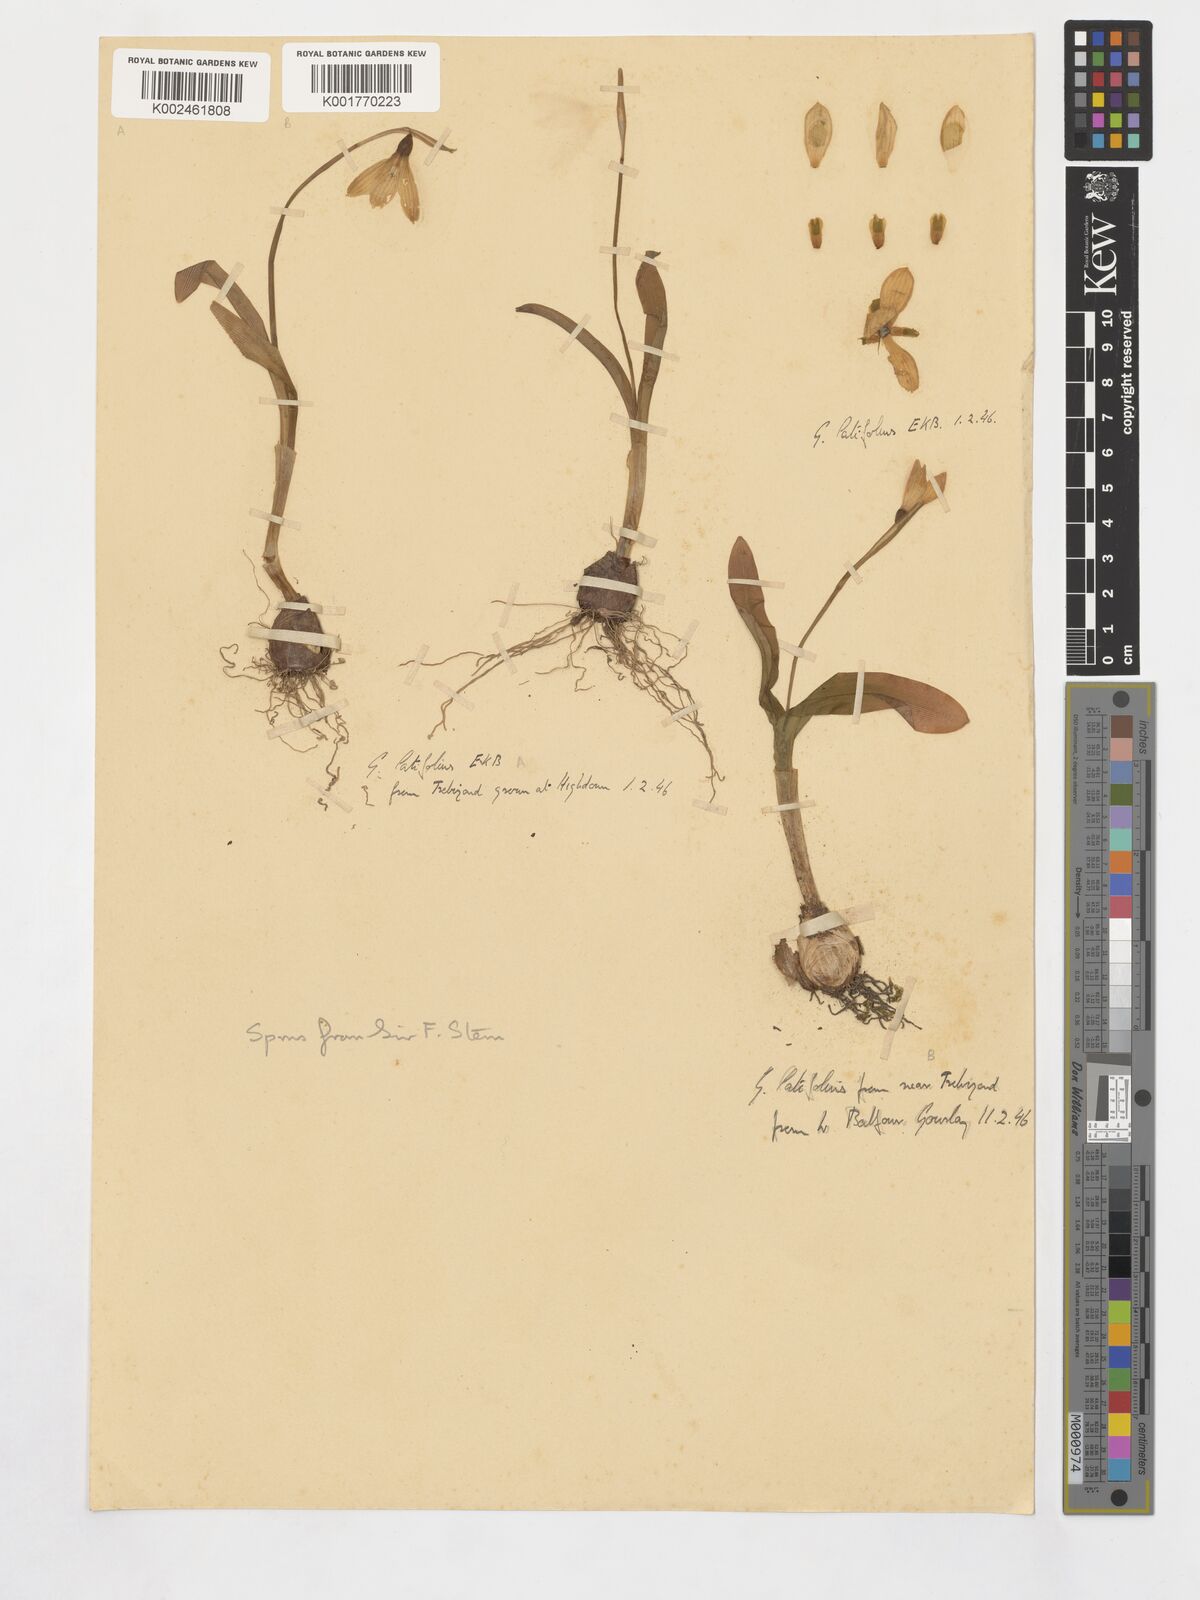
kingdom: Plantae
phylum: Tracheophyta
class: Liliopsida
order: Asparagales
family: Amaryllidaceae
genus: Galanthus
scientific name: Galanthus platyphyllus
